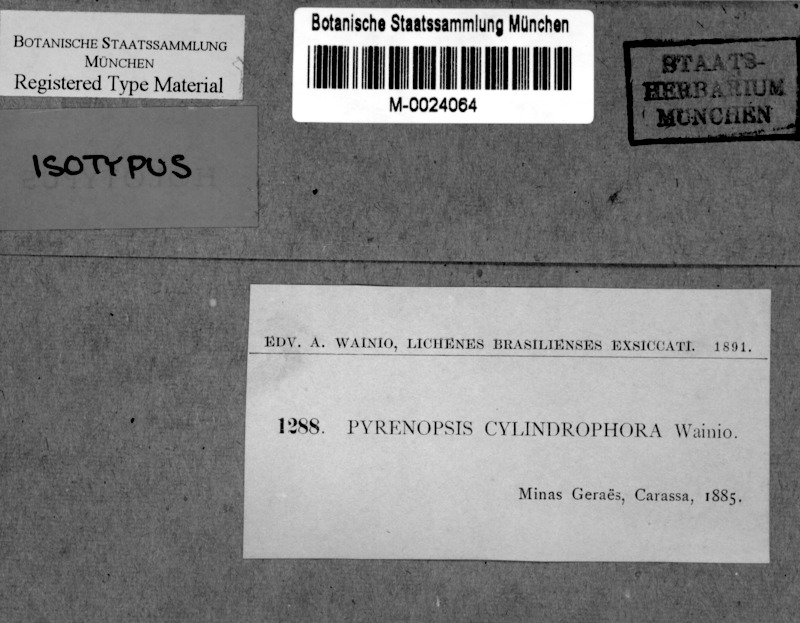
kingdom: Fungi
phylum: Ascomycota
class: Lichinomycetes
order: Lichinales
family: Lichinaceae
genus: Cryptothele
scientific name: Cryptothele
